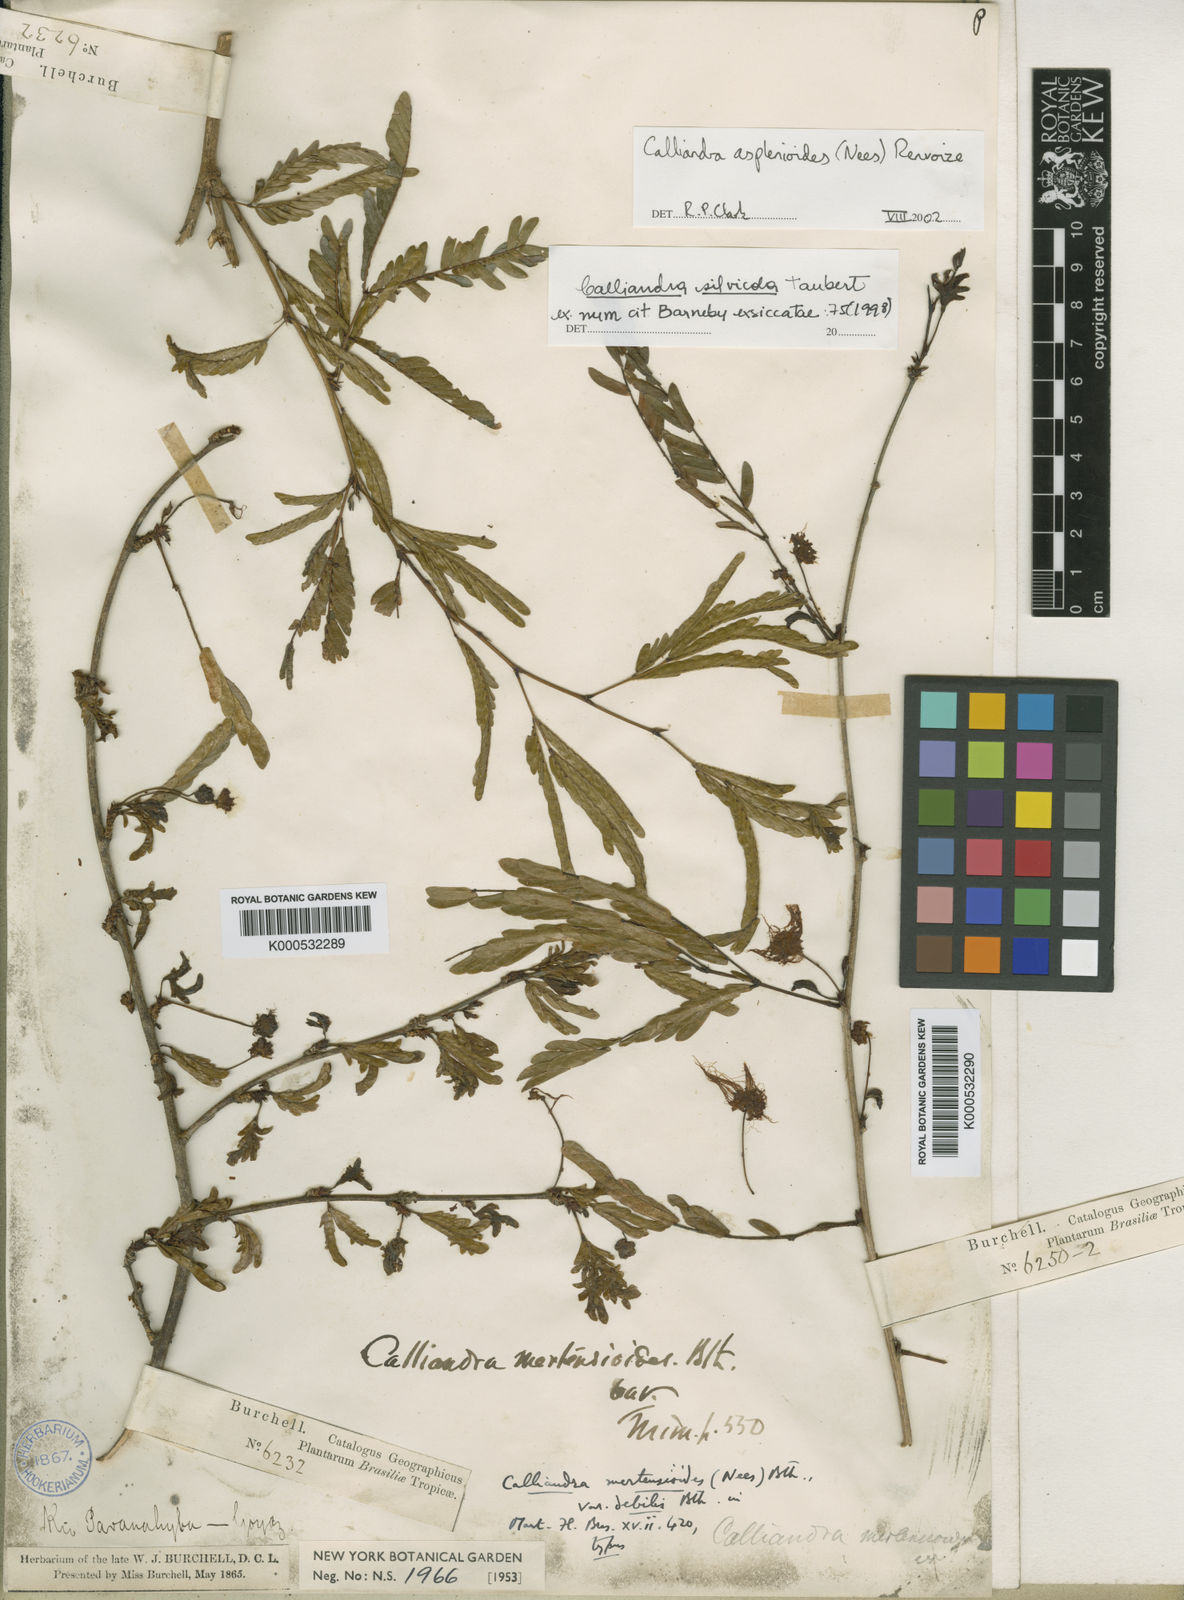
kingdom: Plantae
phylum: Tracheophyta
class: Magnoliopsida
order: Fabales
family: Fabaceae
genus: Calliandra
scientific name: Calliandra silvicola
